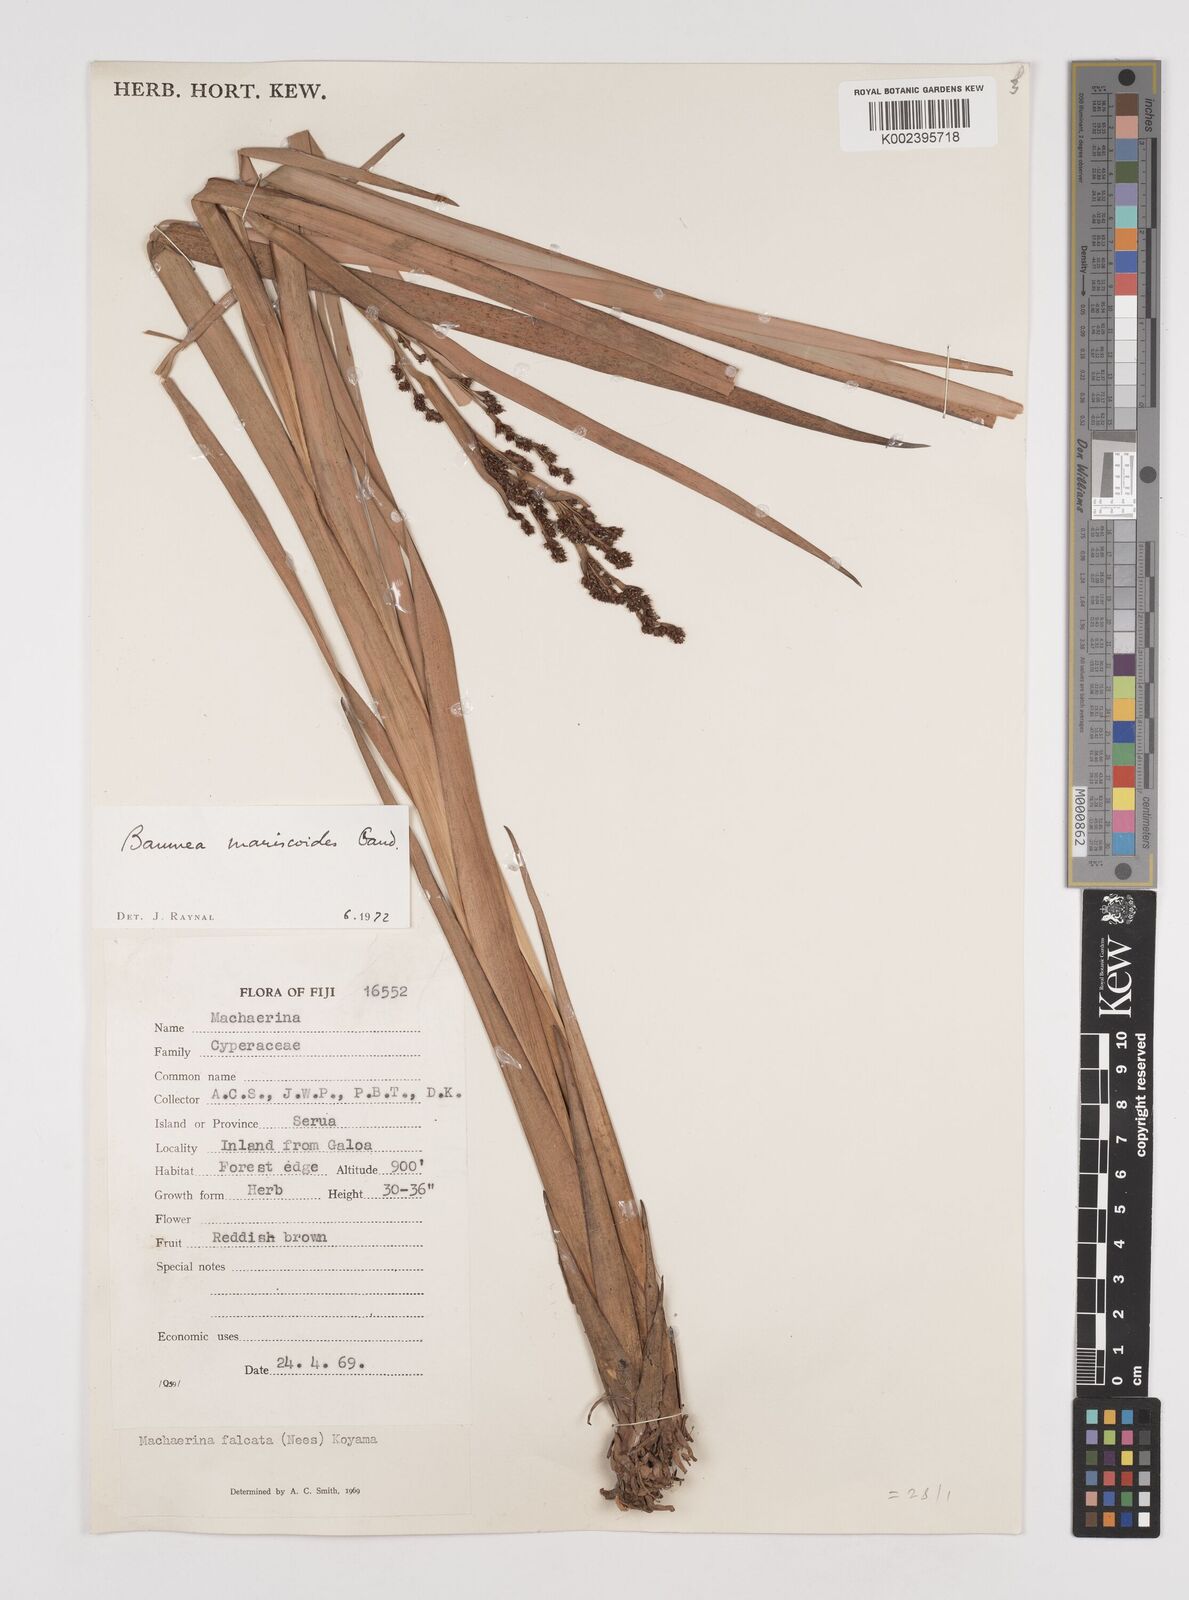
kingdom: Plantae
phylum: Tracheophyta
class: Liliopsida
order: Poales
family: Cyperaceae
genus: Machaerina
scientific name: Machaerina mariscoides
